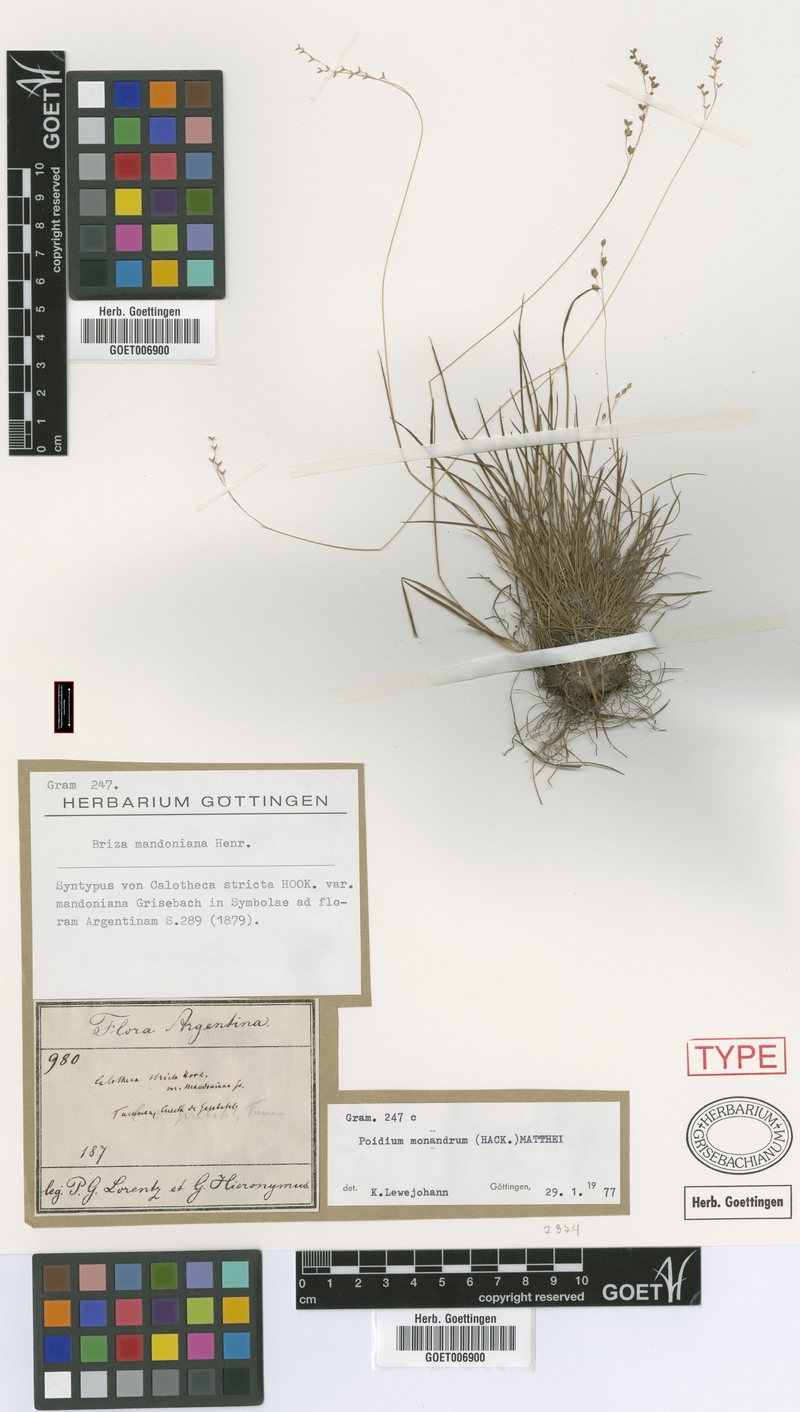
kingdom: Plantae
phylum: Tracheophyta
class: Liliopsida
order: Poales
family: Poaceae
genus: Poidium
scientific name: Poidium monandrum
